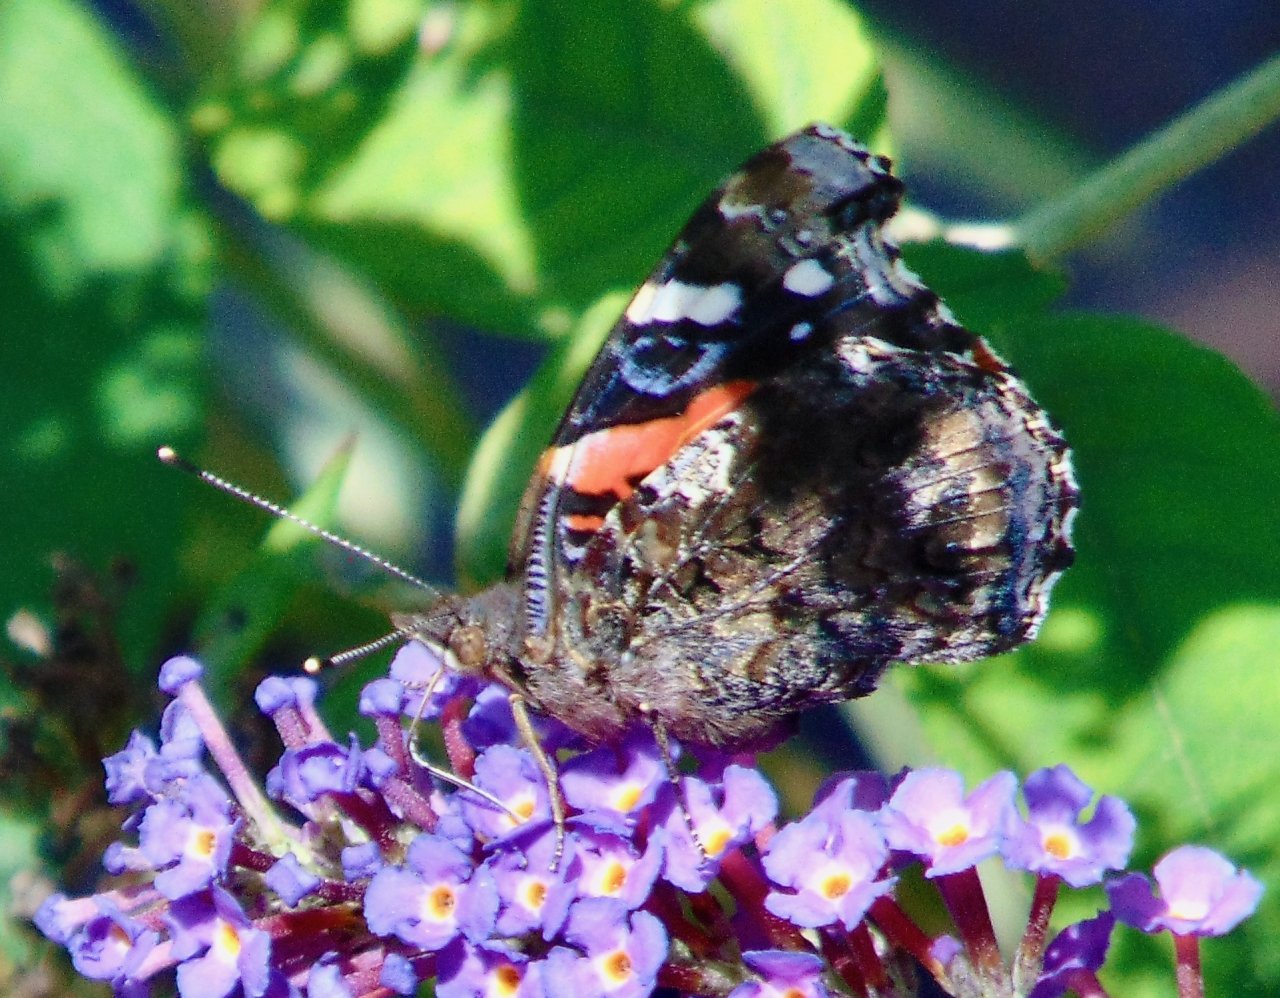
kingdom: Animalia
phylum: Arthropoda
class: Insecta
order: Lepidoptera
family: Nymphalidae
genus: Vanessa
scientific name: Vanessa atalanta
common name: Red Admiral
